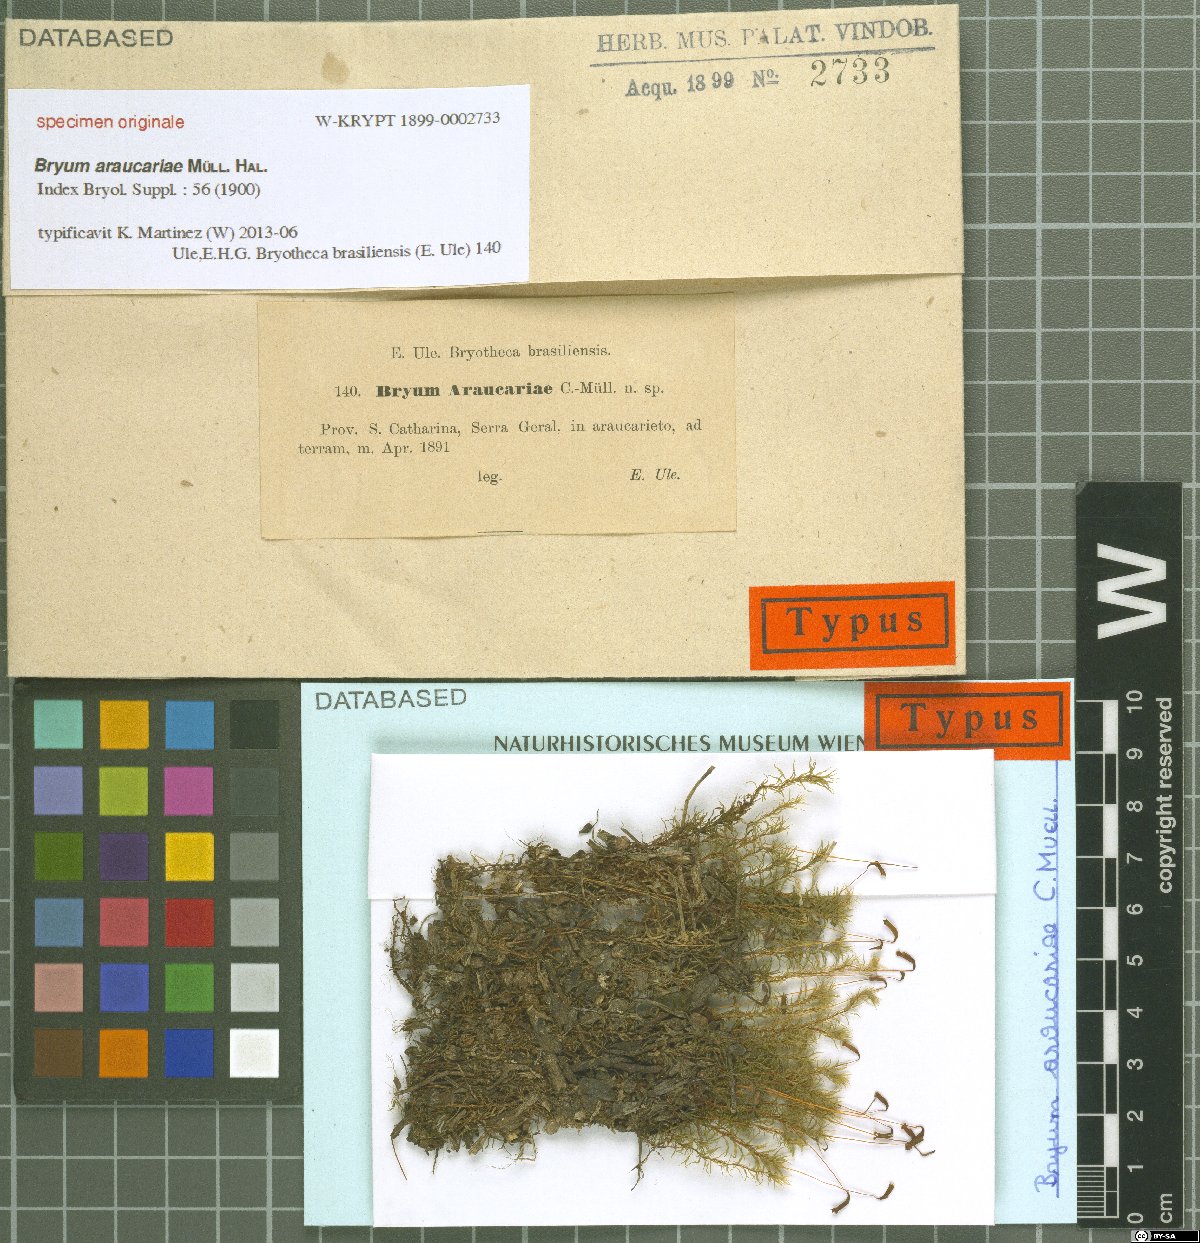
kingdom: Plantae
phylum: Bryophyta
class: Bryopsida
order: Bryales
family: Bryaceae
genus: Bryum
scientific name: Bryum
